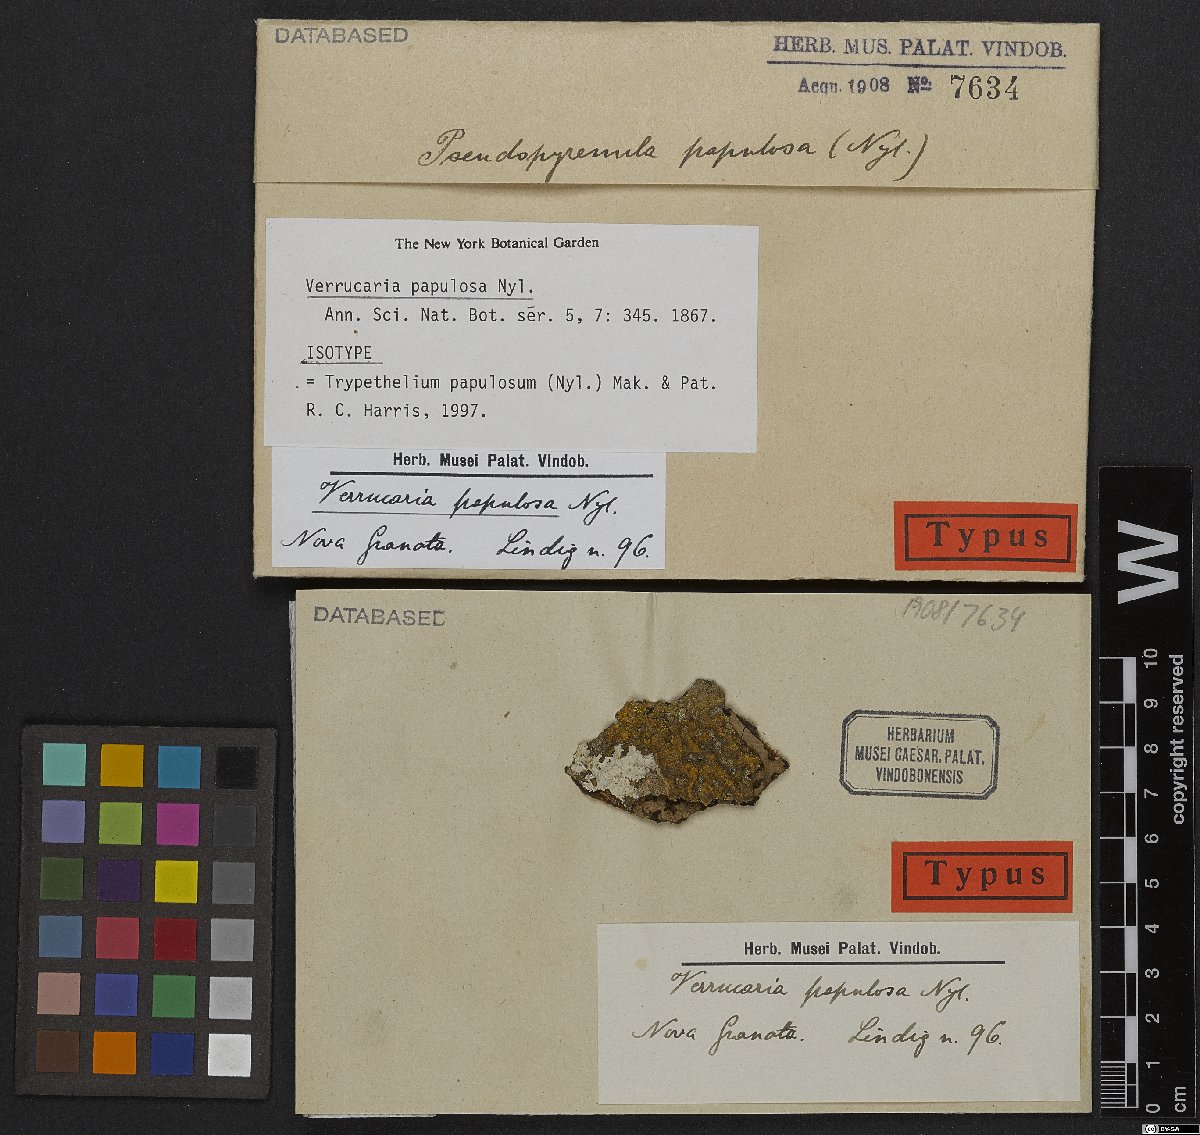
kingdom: Fungi
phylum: Ascomycota
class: Dothideomycetes
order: Trypetheliales
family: Trypetheliaceae
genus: Astrothelium
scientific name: Astrothelium papulosum
